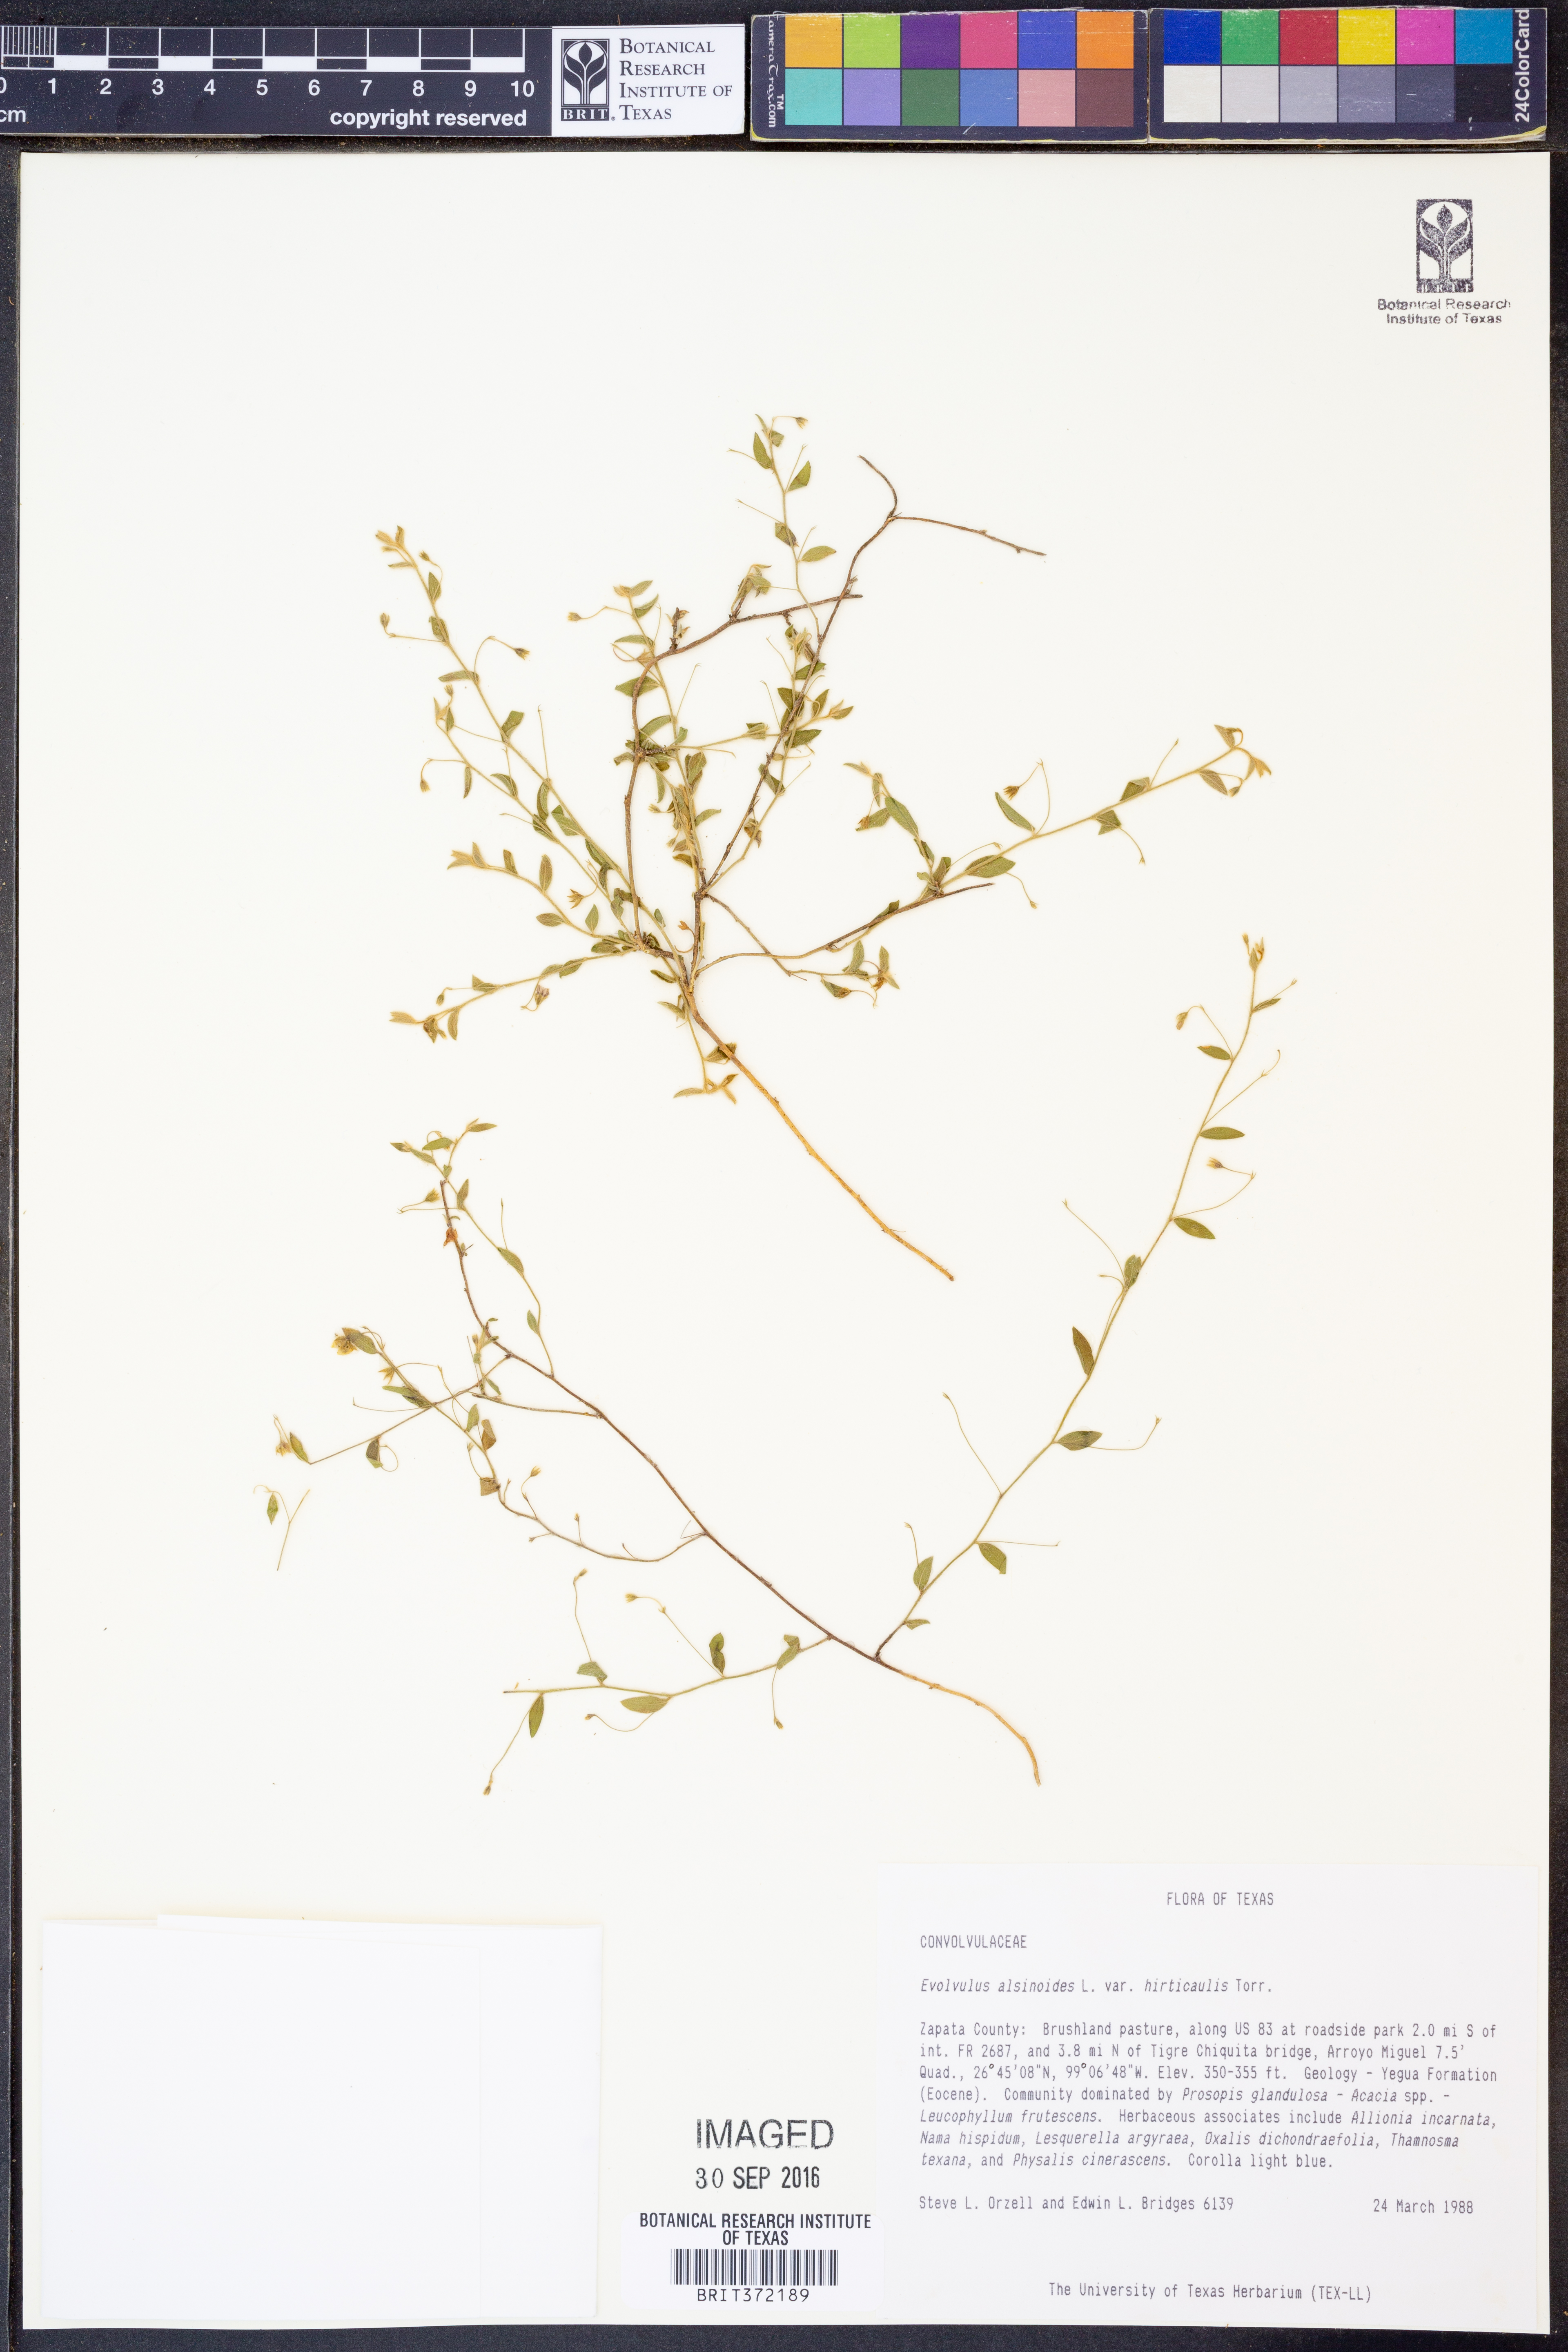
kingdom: Plantae
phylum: Tracheophyta
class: Magnoliopsida
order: Solanales
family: Convolvulaceae
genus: Evolvulus
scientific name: Evolvulus alsinoides
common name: Slender dwarf morning-glory
